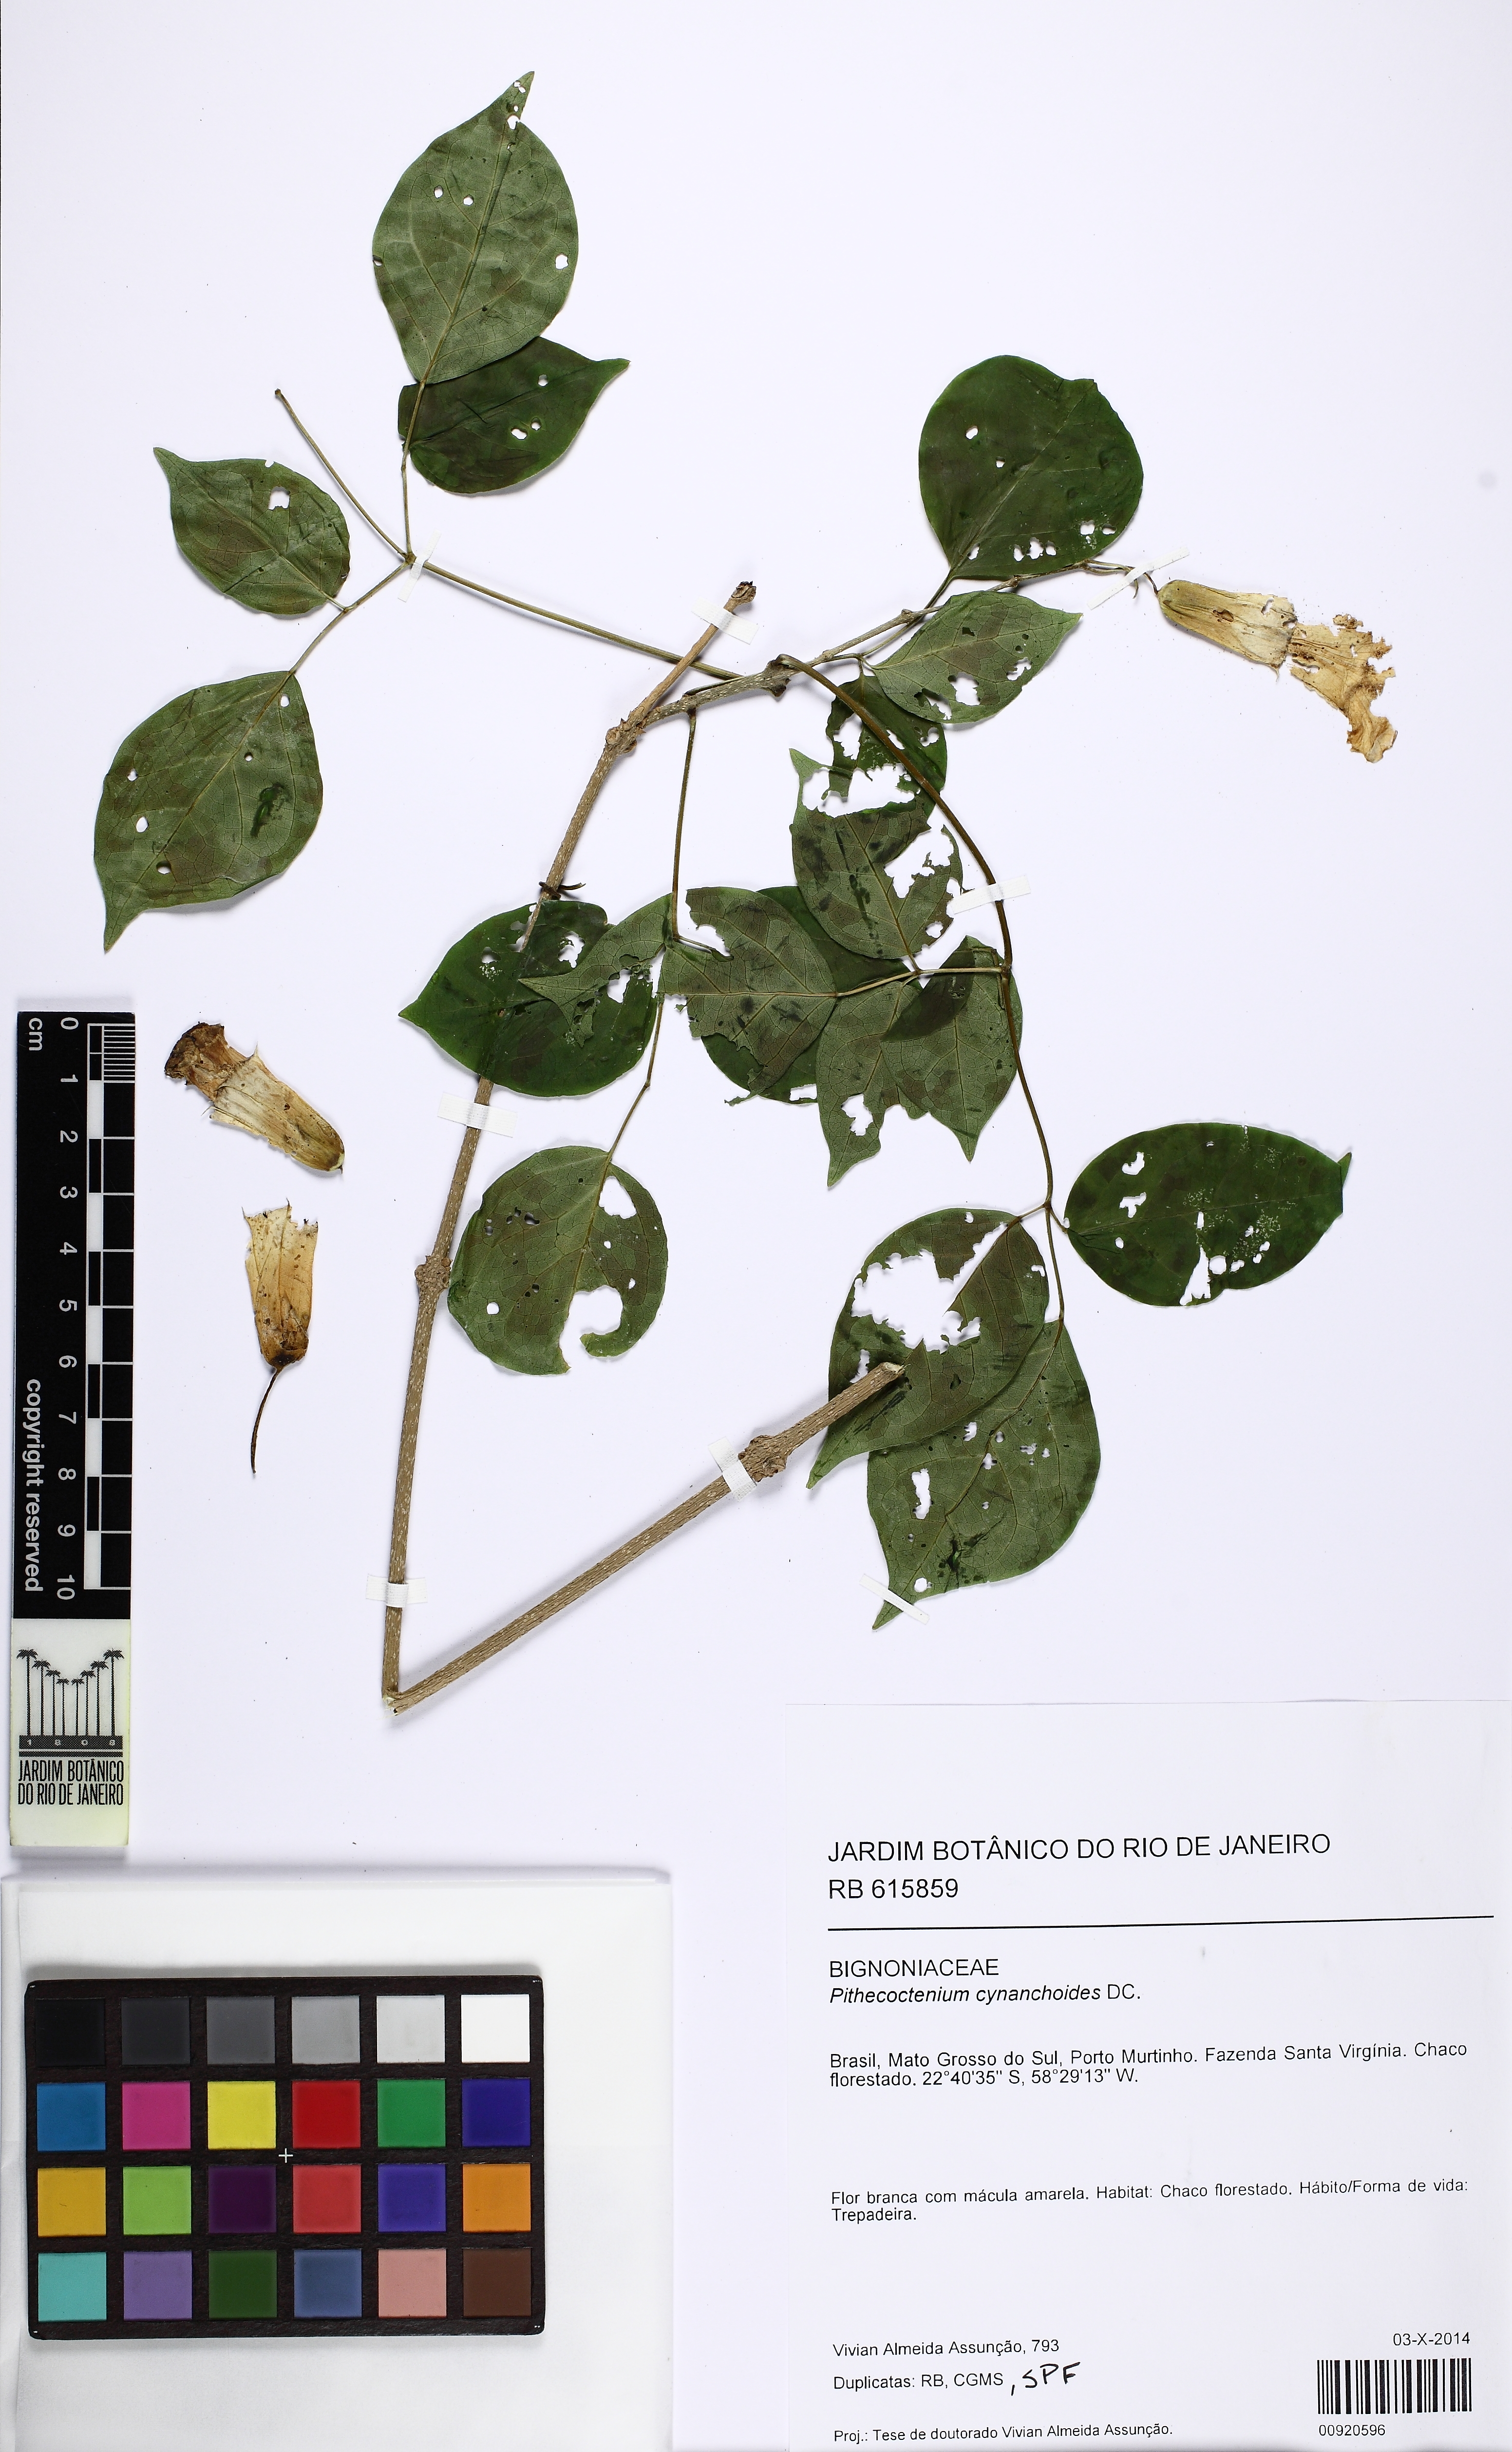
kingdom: Plantae
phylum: Tracheophyta
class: Magnoliopsida
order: Lamiales
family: Bignoniaceae
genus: Perianthomega
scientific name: Perianthomega vellozoi
